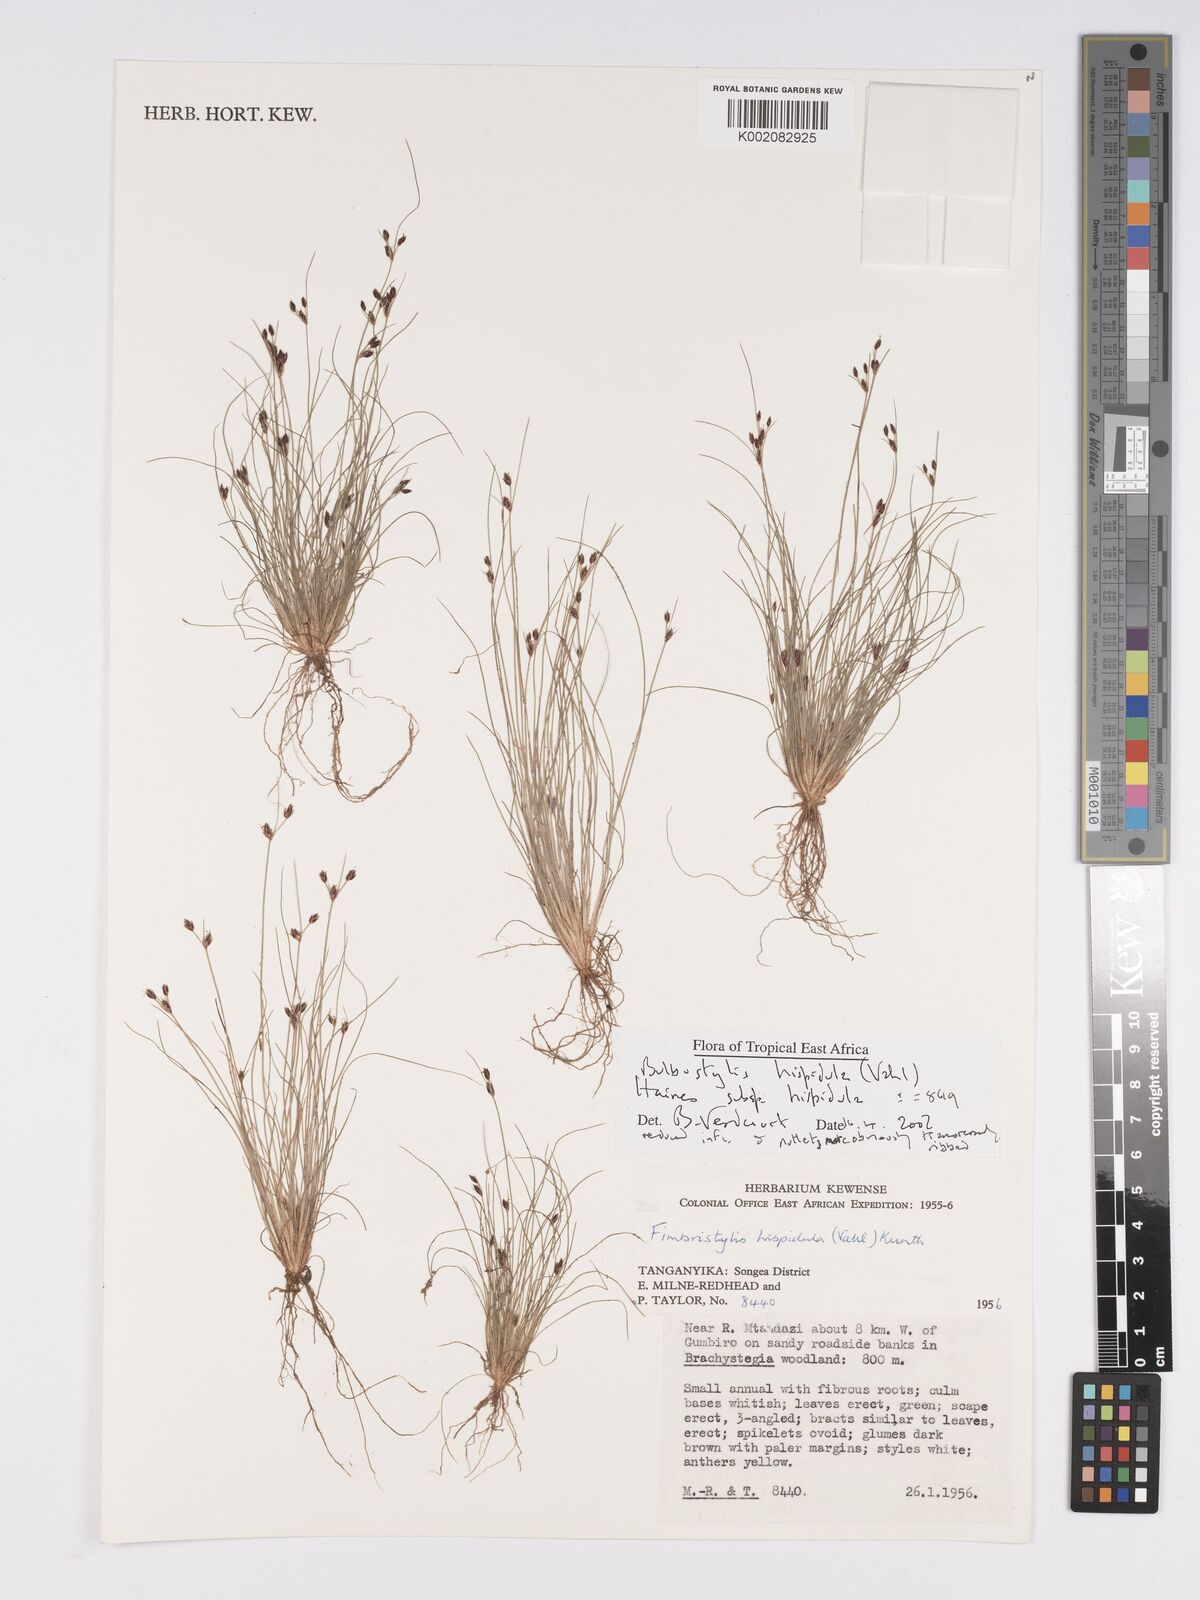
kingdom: Plantae
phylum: Tracheophyta
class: Liliopsida
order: Poales
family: Cyperaceae
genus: Bulbostylis
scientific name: Bulbostylis hispidula
